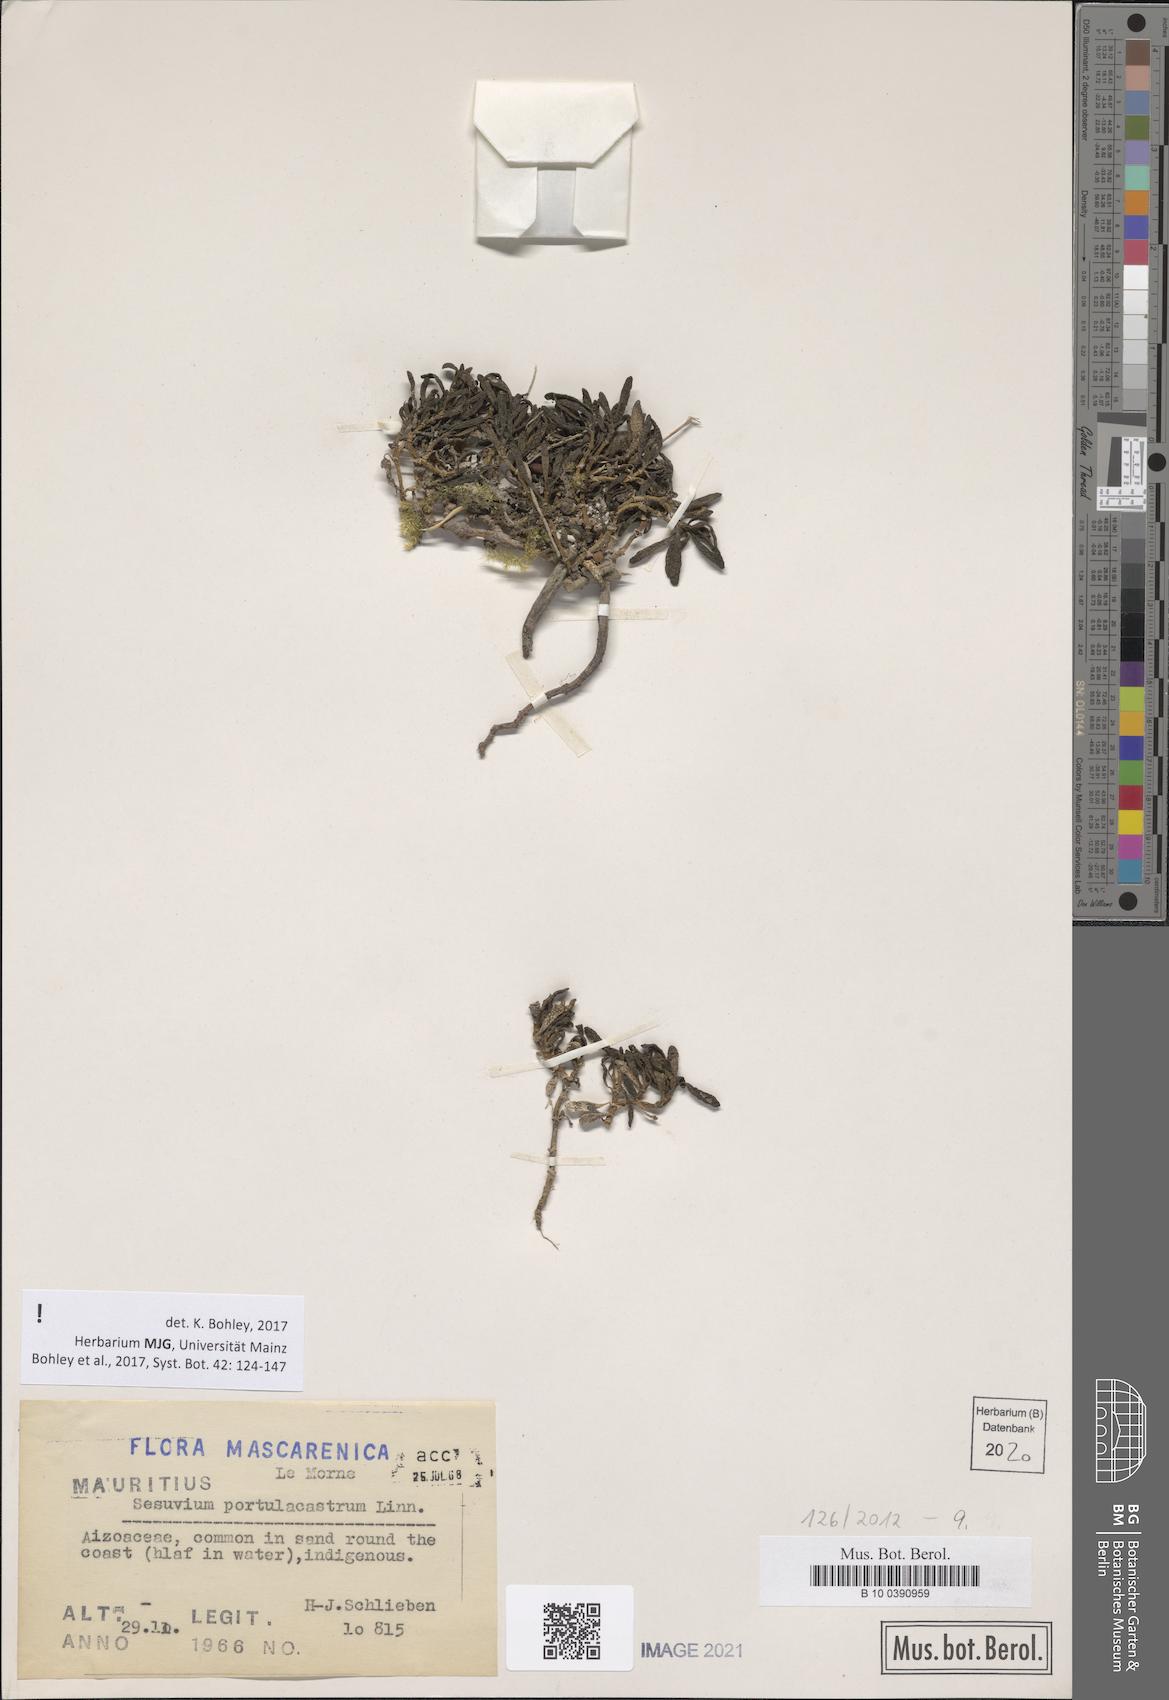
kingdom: Plantae
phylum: Tracheophyta
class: Magnoliopsida
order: Caryophyllales
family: Aizoaceae
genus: Sesuvium
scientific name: Sesuvium portulacastrum
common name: Sea-purslane
